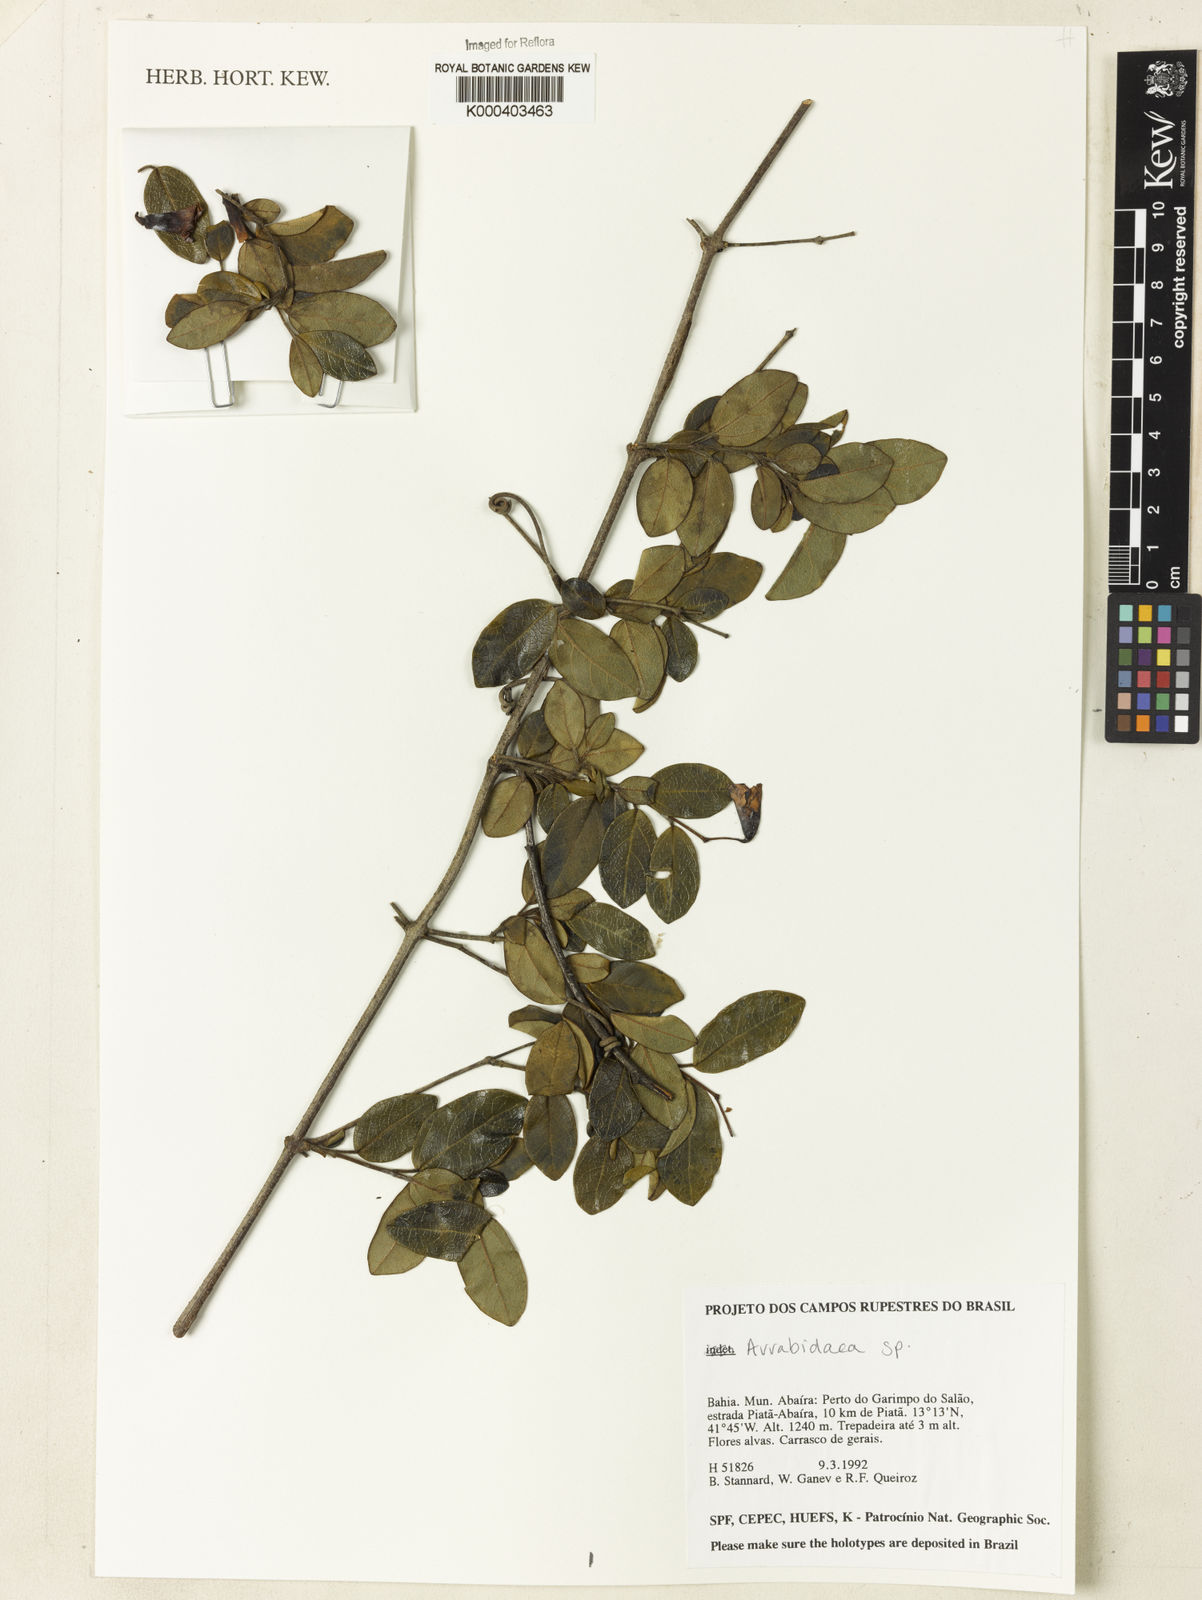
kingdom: Plantae
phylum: Tracheophyta
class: Magnoliopsida
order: Rosales
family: Rhamnaceae
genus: Arrabidaea
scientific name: Arrabidaea
